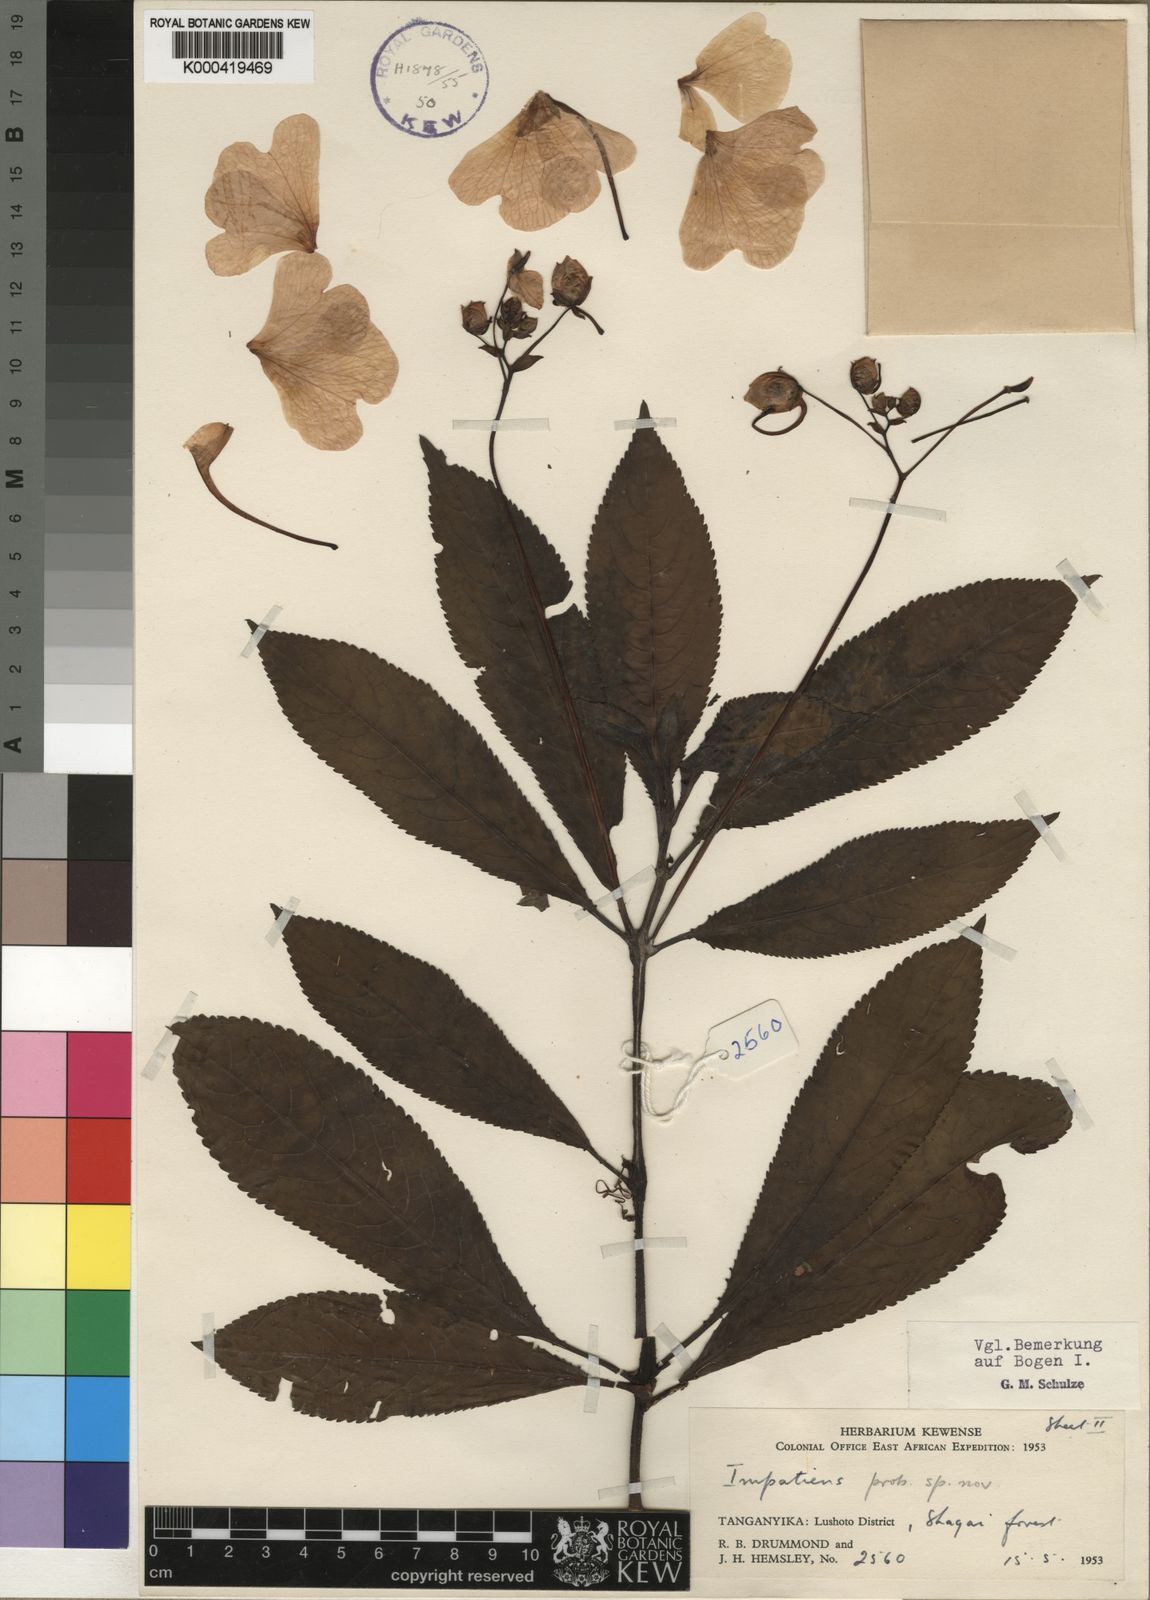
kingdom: Plantae
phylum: Tracheophyta
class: Magnoliopsida
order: Ericales
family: Balsaminaceae
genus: Impatiens
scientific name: Impatiens teitensis
